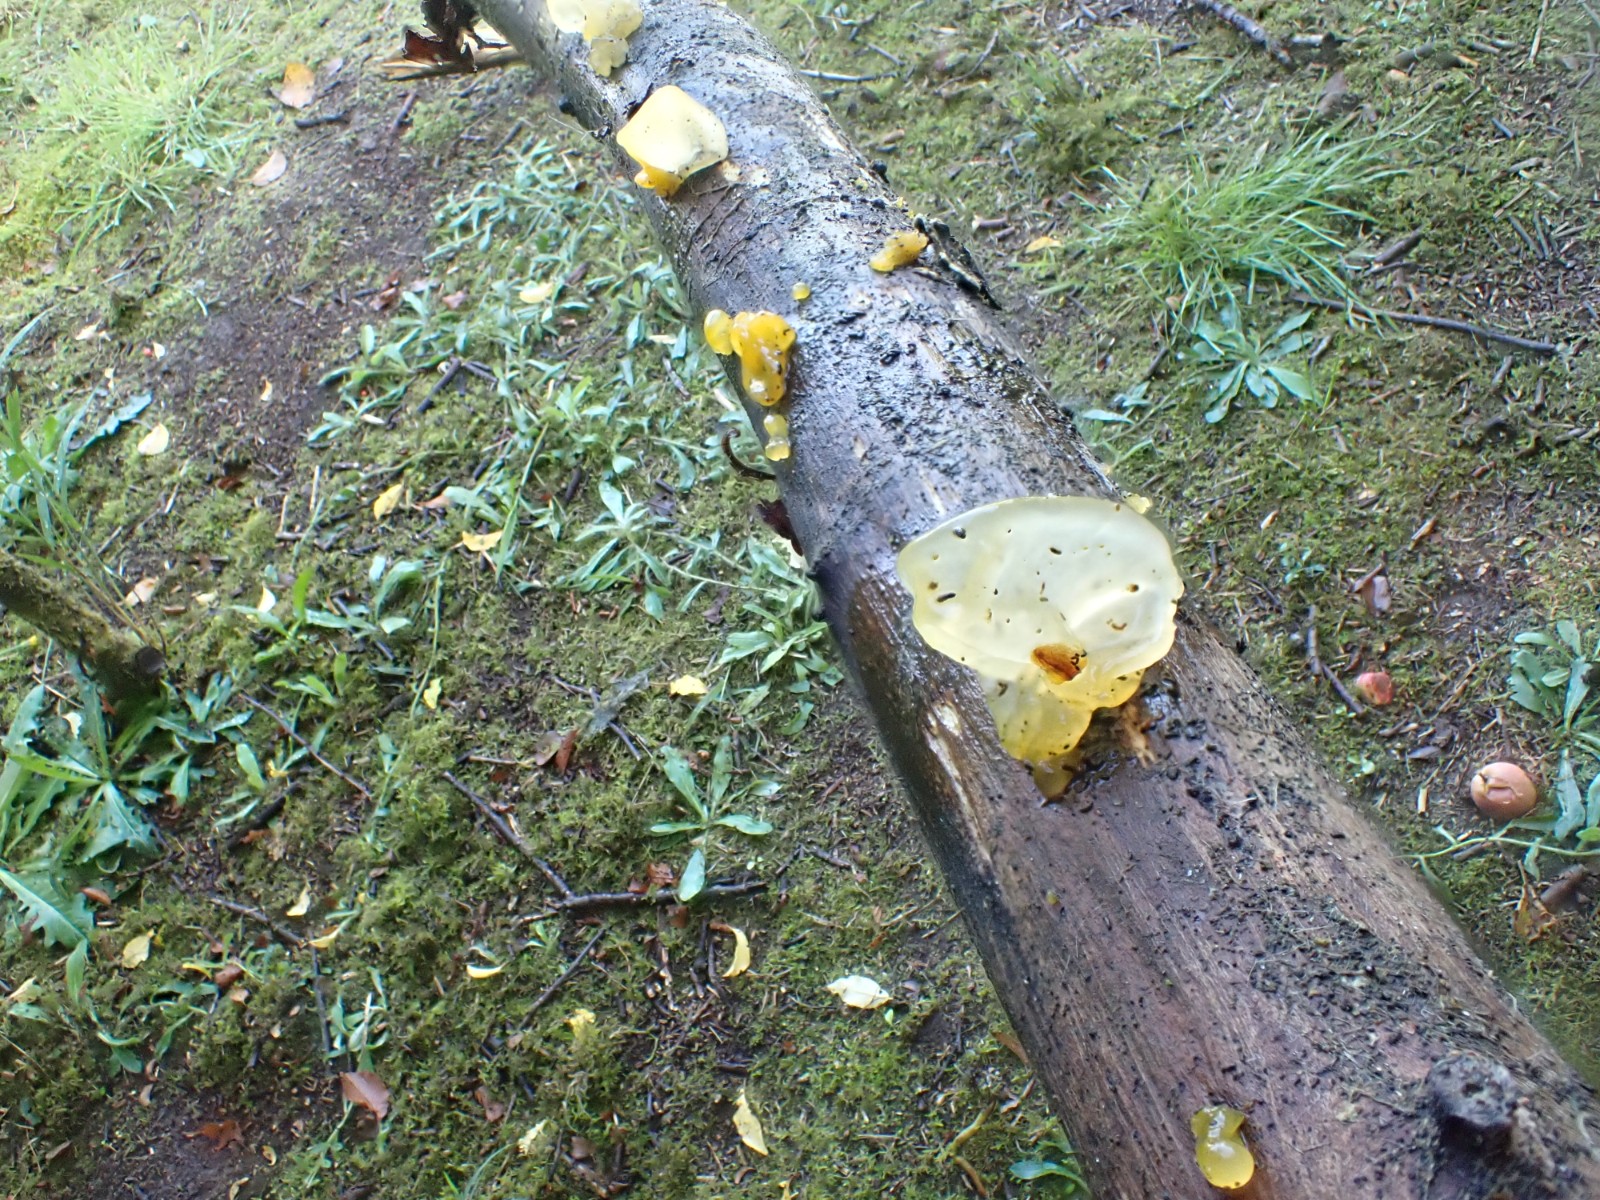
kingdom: Fungi
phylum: Basidiomycota
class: Tremellomycetes
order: Tremellales
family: Tremellaceae
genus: Tremella
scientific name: Tremella mesenterica
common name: gul bævresvamp
